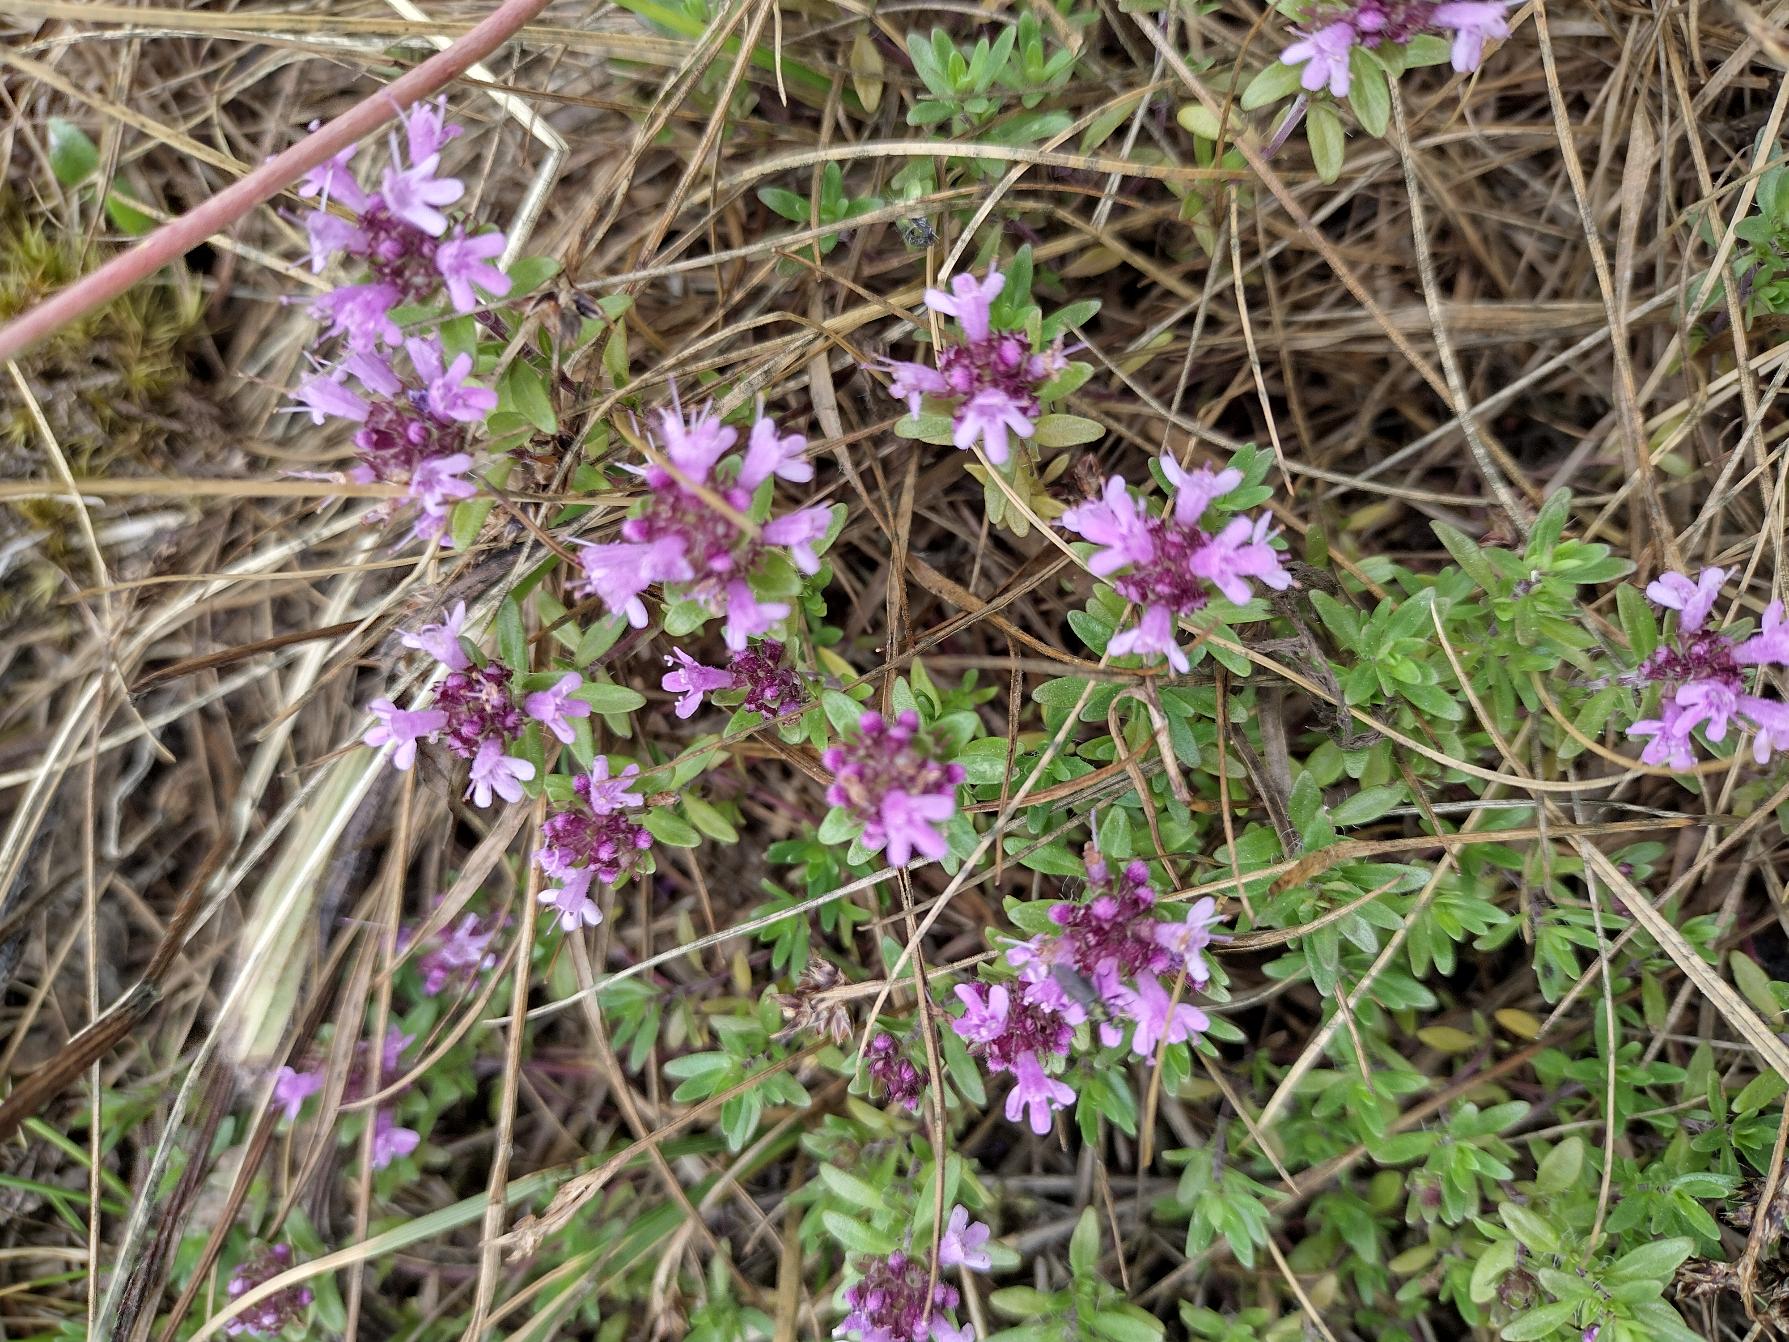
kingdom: Plantae
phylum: Tracheophyta
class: Magnoliopsida
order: Lamiales
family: Lamiaceae
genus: Thymus
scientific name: Thymus serpyllum
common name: Smalbladet timian
